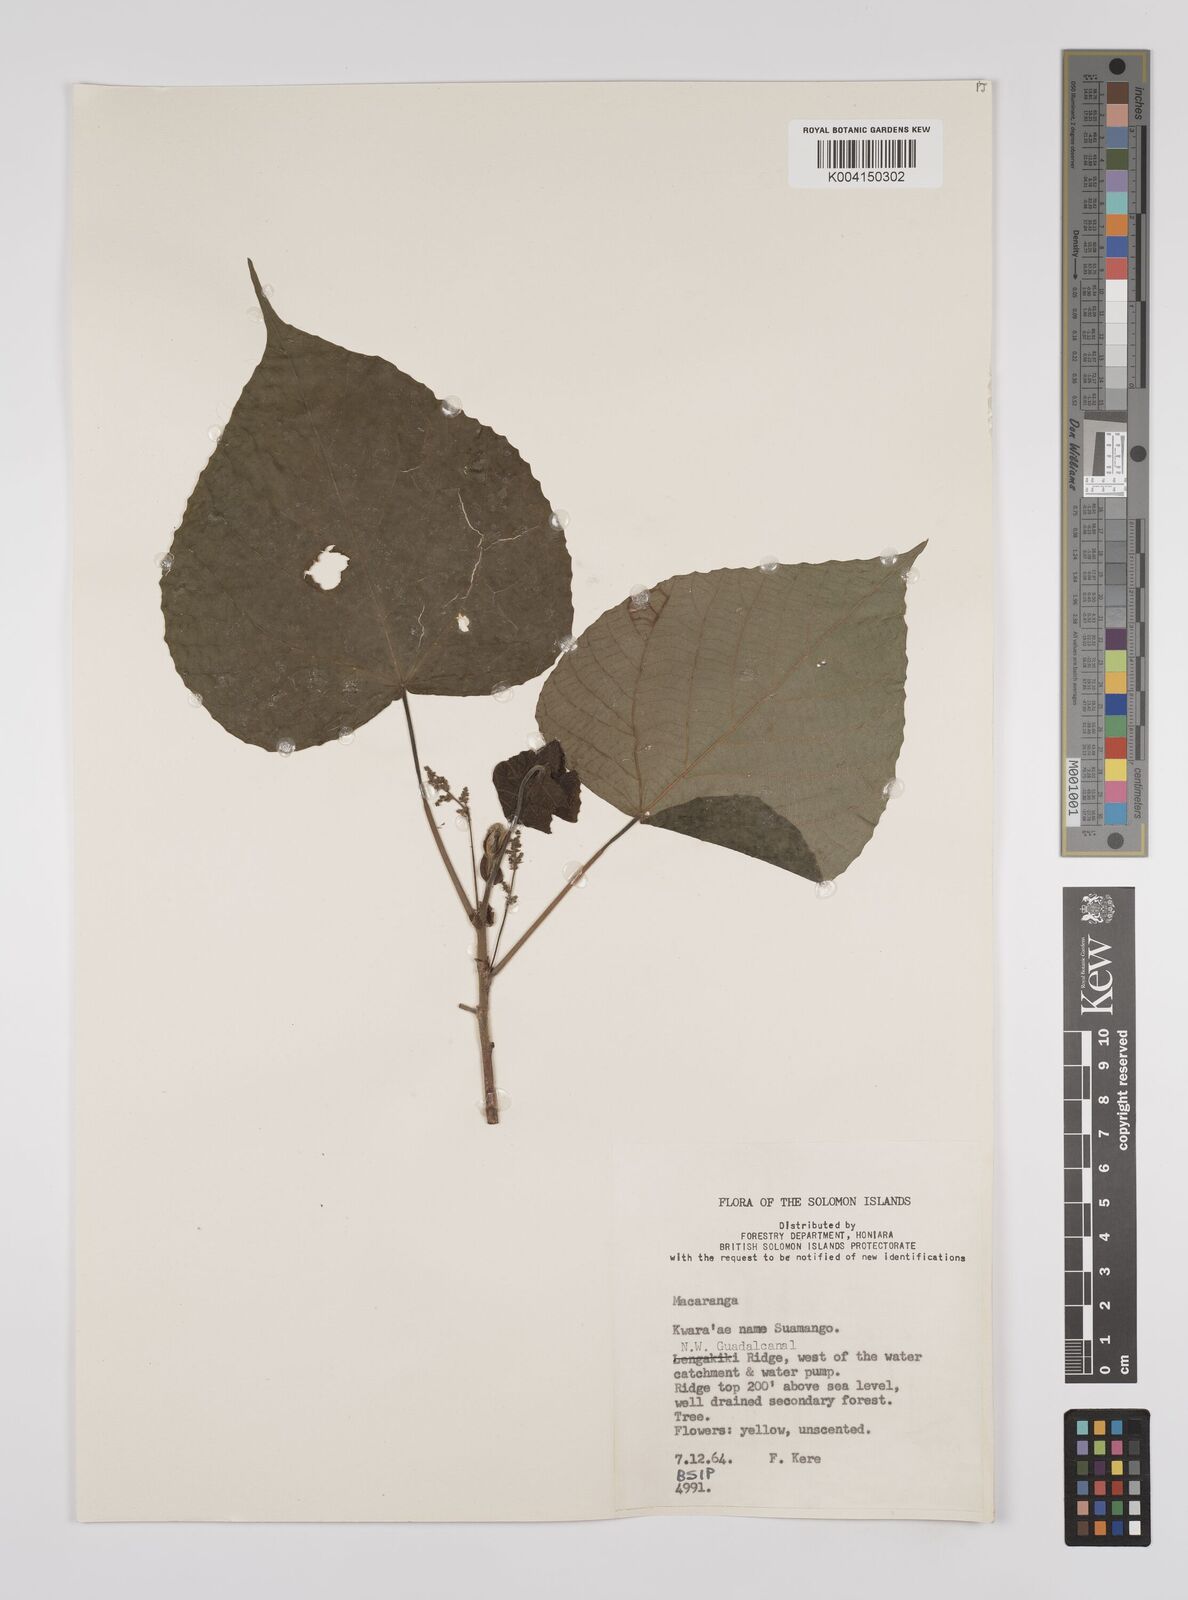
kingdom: Plantae
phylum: Tracheophyta
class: Magnoliopsida
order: Malpighiales
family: Euphorbiaceae
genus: Macaranga
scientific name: Macaranga dioica
